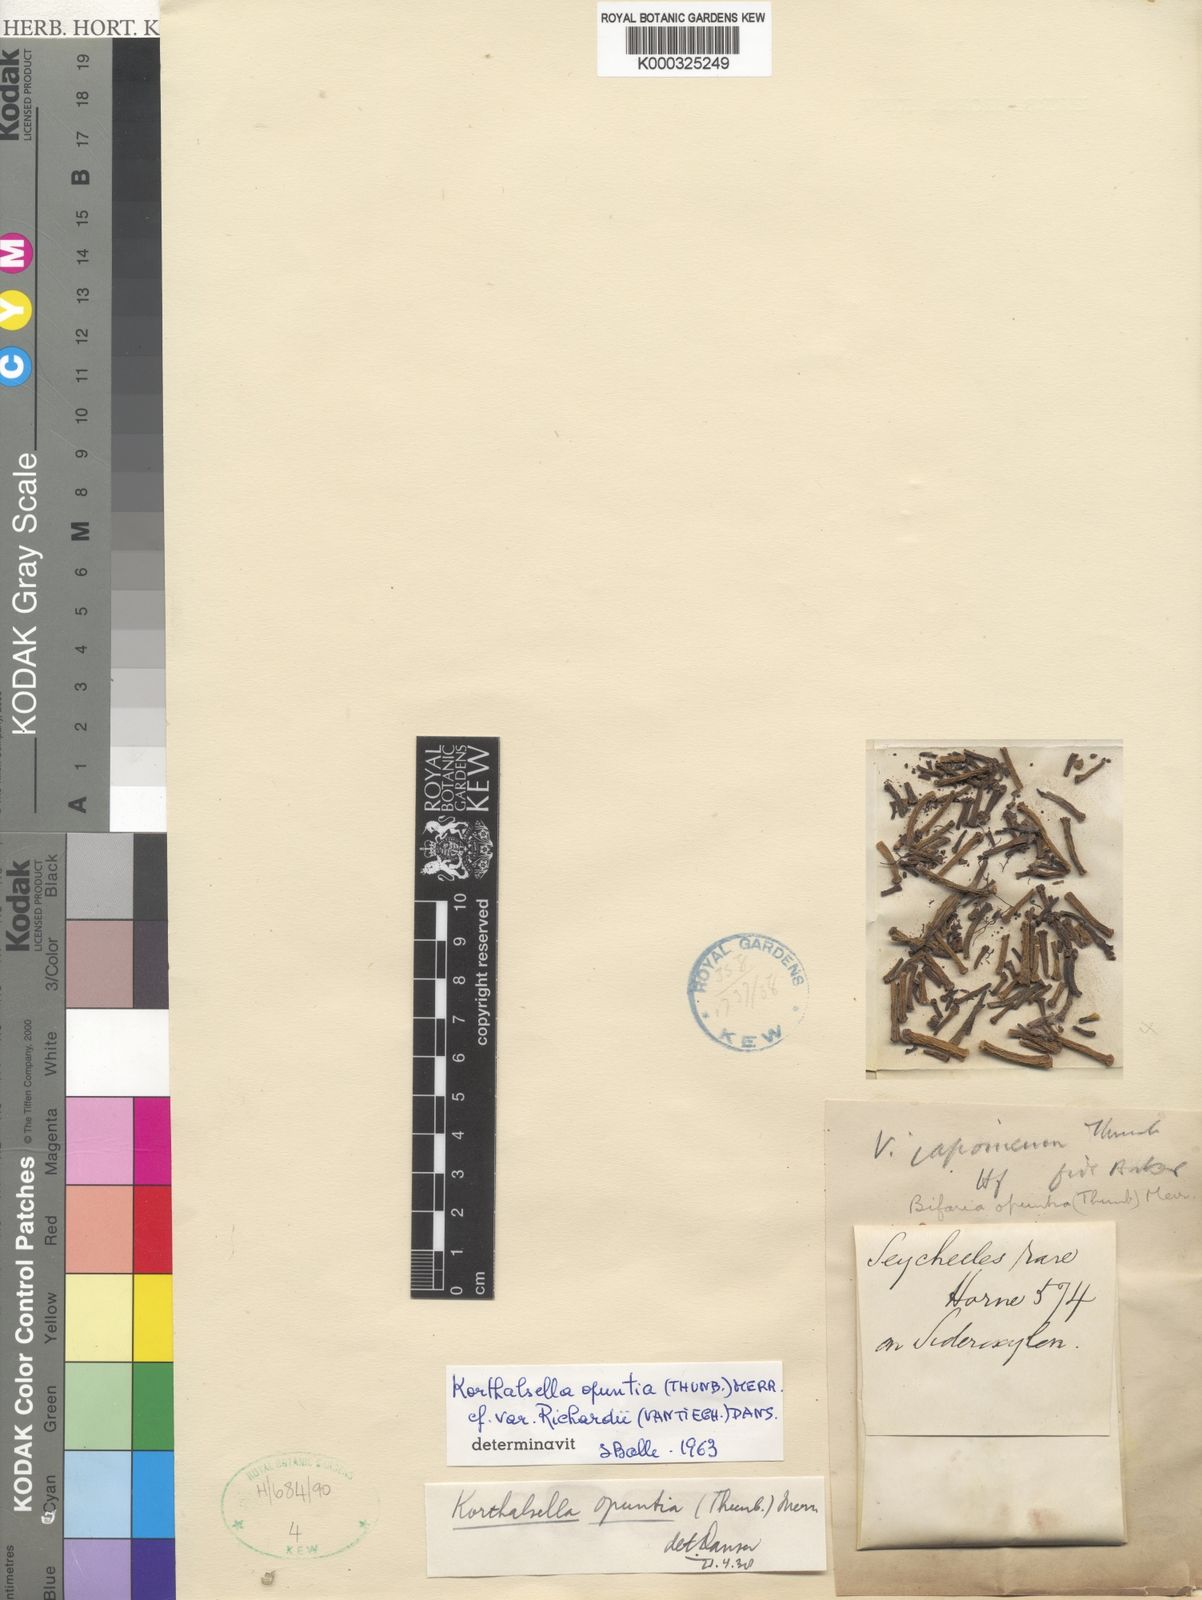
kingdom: Plantae
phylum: Tracheophyta
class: Magnoliopsida
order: Santalales
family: Viscaceae
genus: Korthalsella
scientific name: Korthalsella
